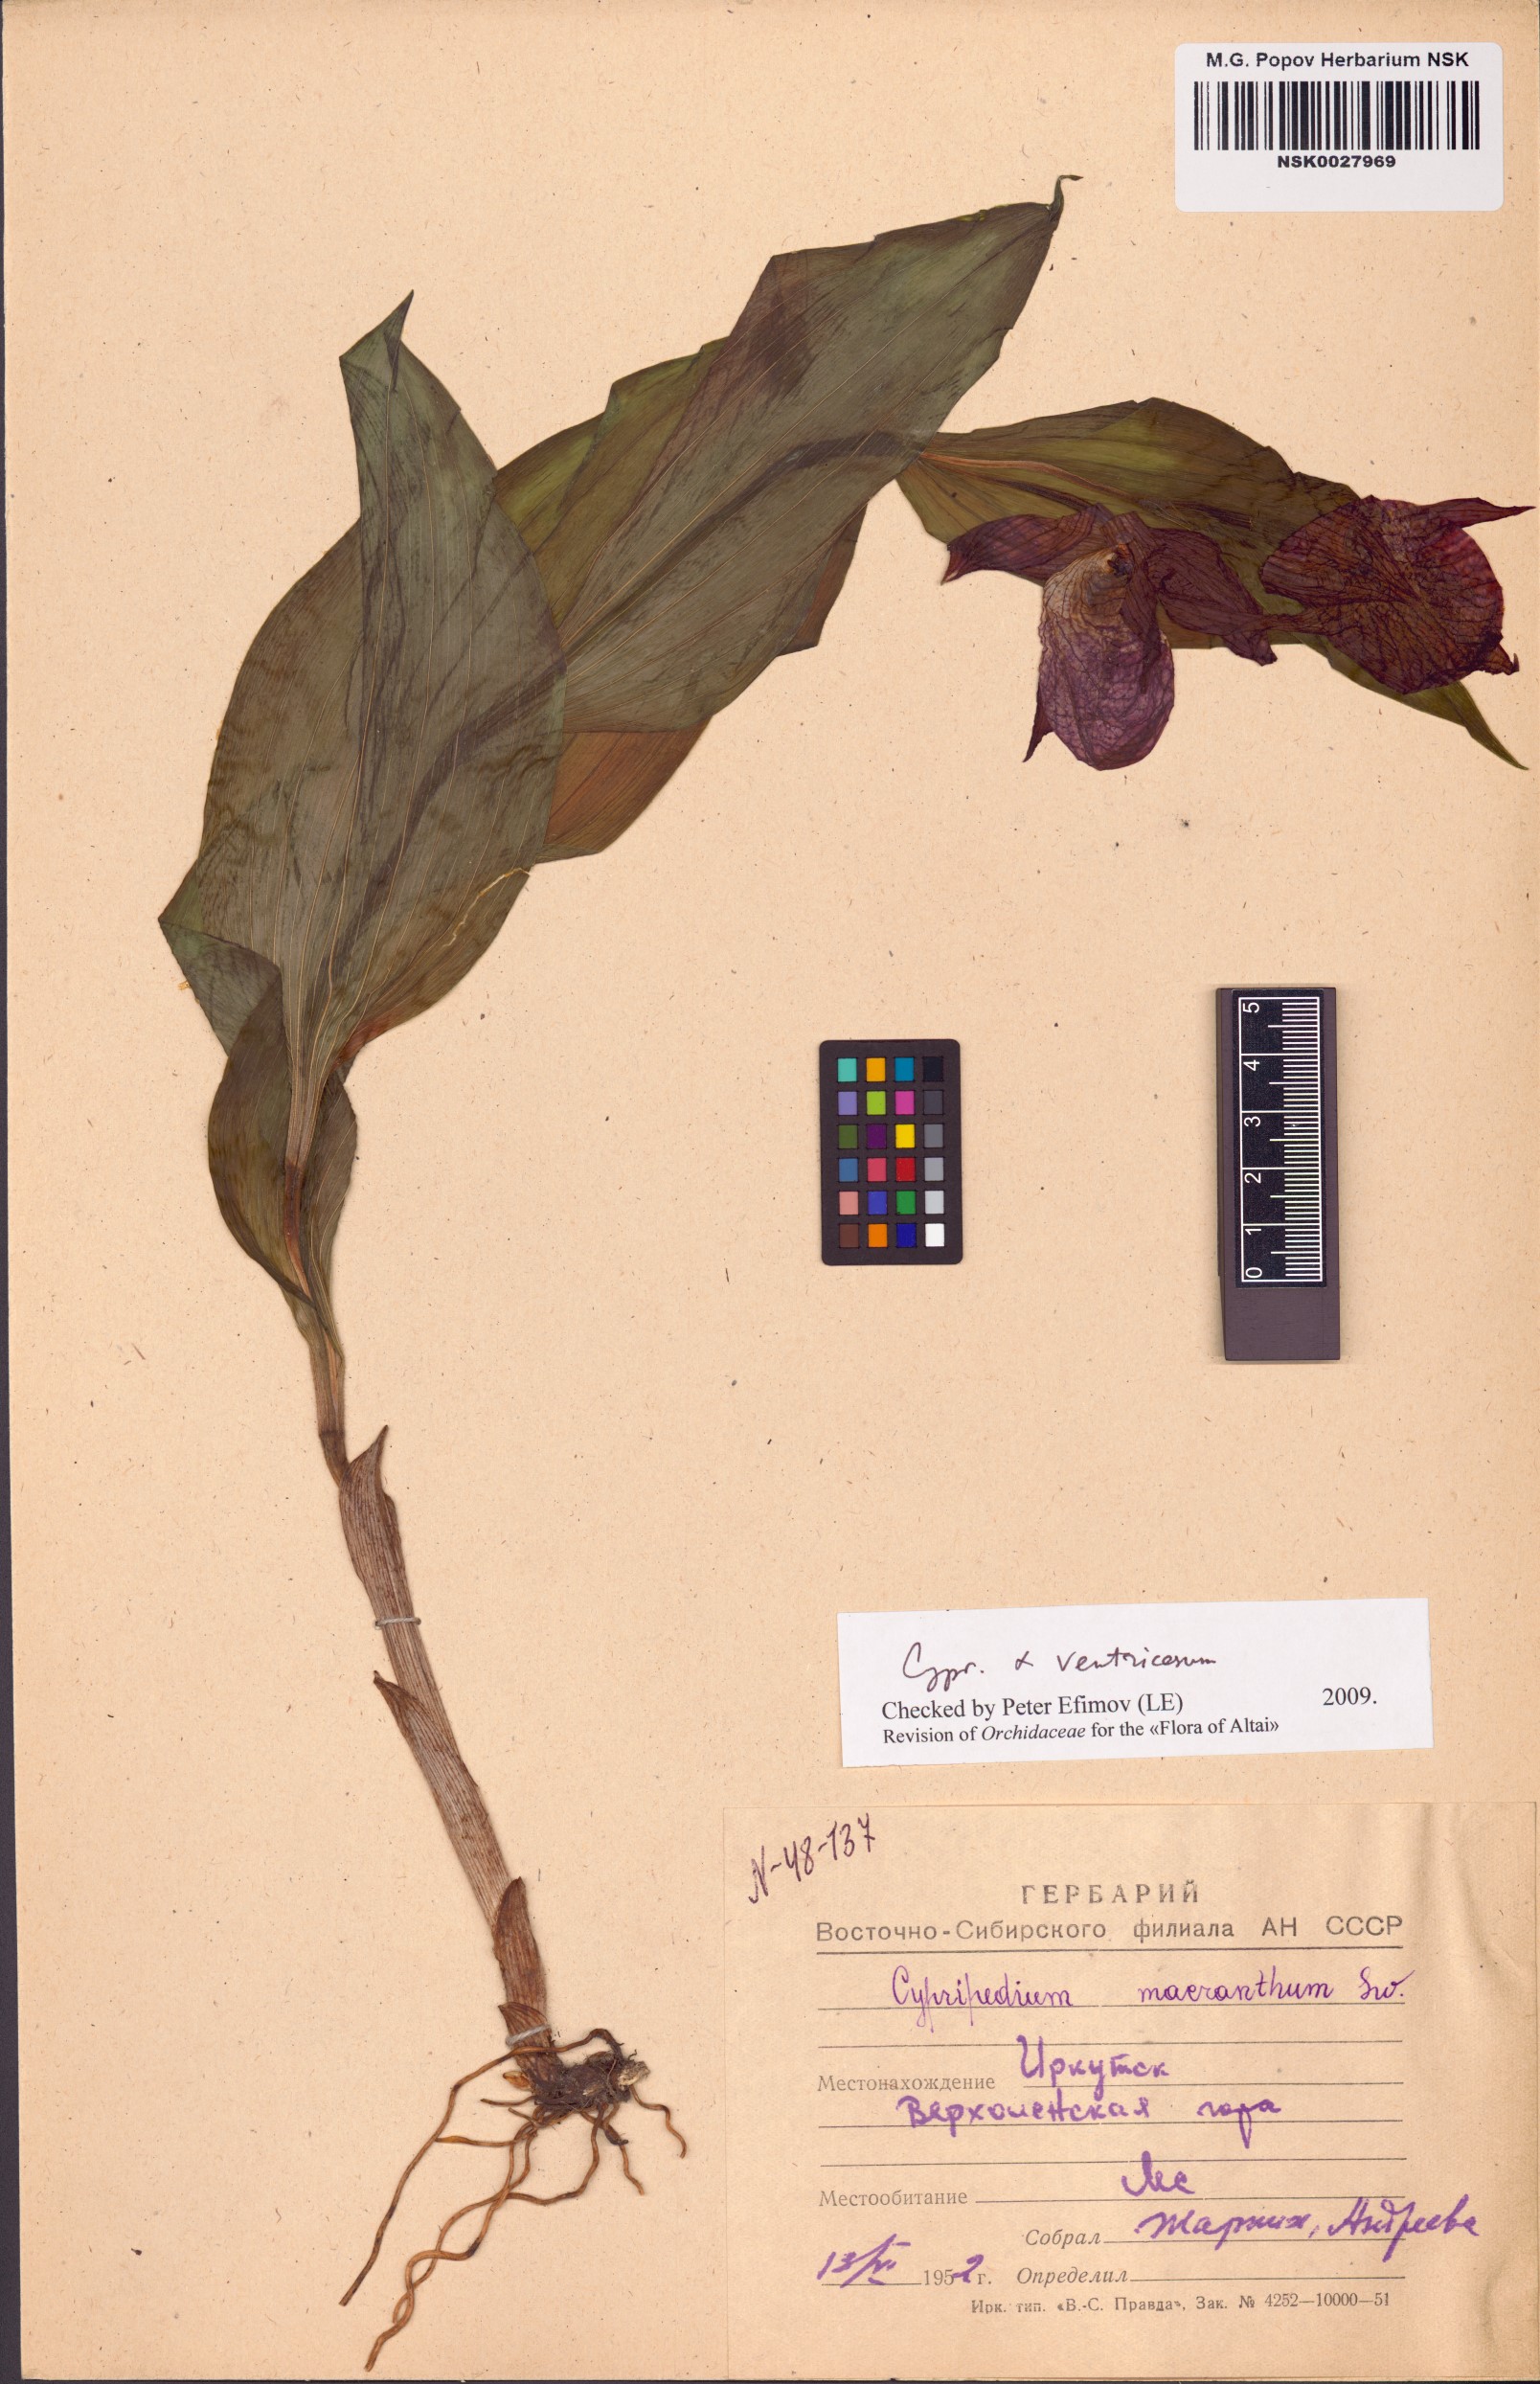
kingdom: Plantae
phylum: Tracheophyta
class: Liliopsida
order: Asparagales
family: Orchidaceae
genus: Cypripedium
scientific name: Cypripedium ventricosum
